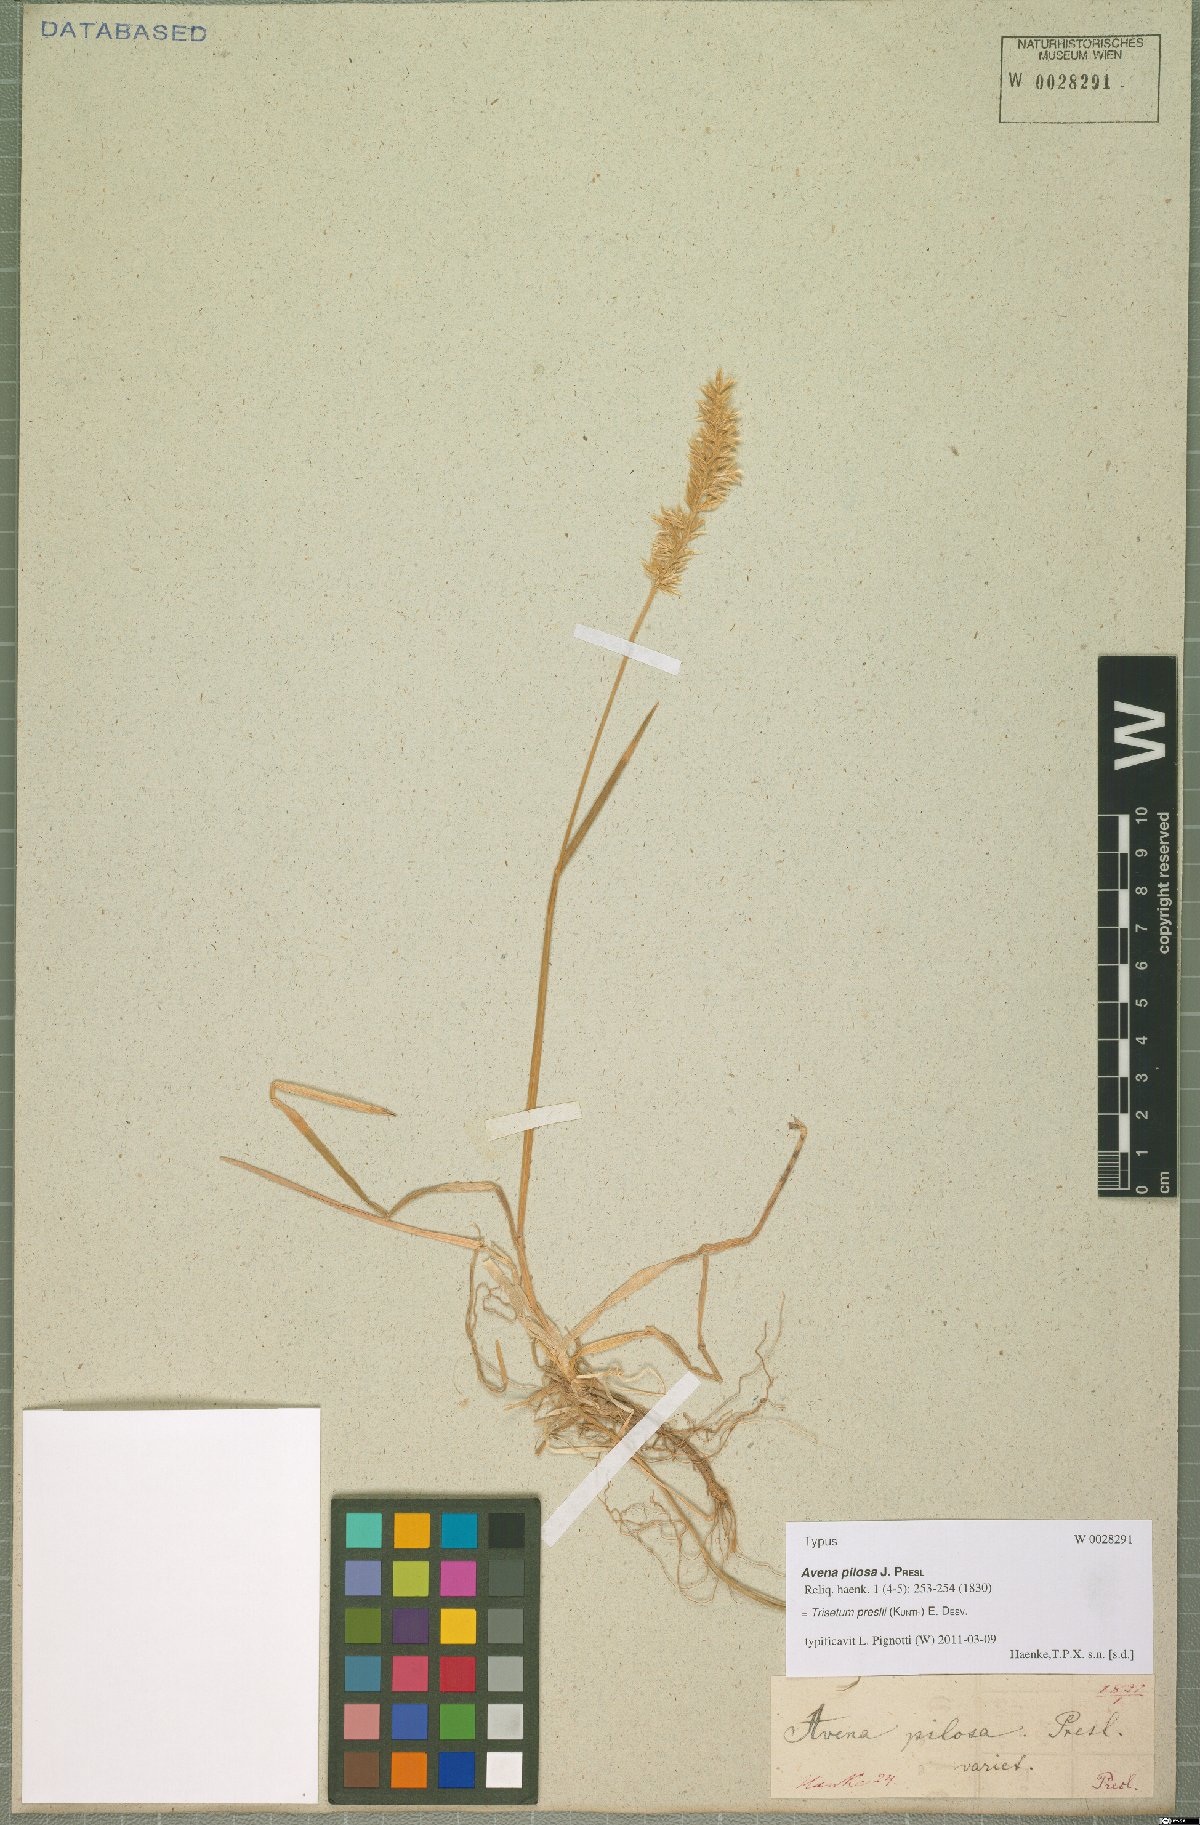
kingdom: Plantae
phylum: Tracheophyta
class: Liliopsida
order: Poales
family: Poaceae
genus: Koeleria
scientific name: Koeleria preslii
